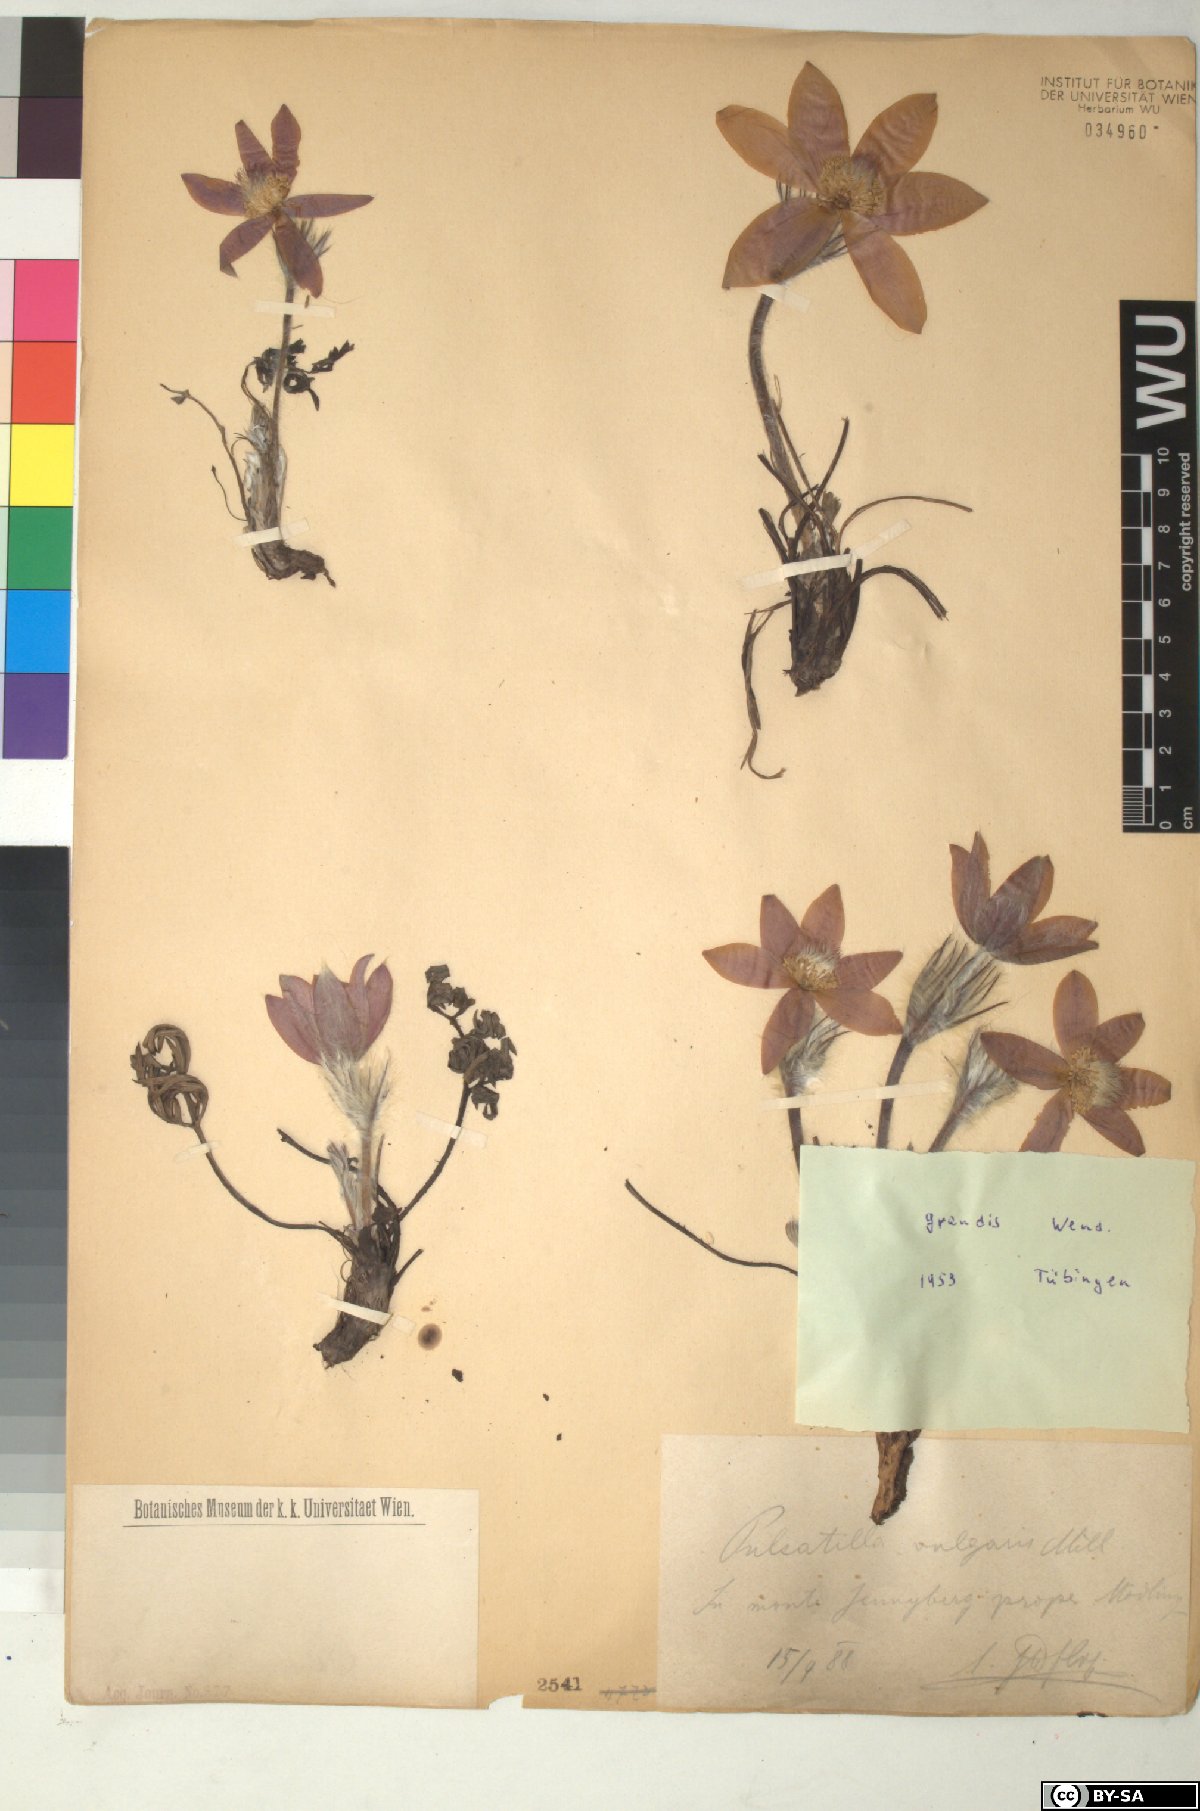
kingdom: Plantae
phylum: Tracheophyta
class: Magnoliopsida
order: Ranunculales
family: Ranunculaceae
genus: Pulsatilla
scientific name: Pulsatilla grandis
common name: Greater pasque flower
